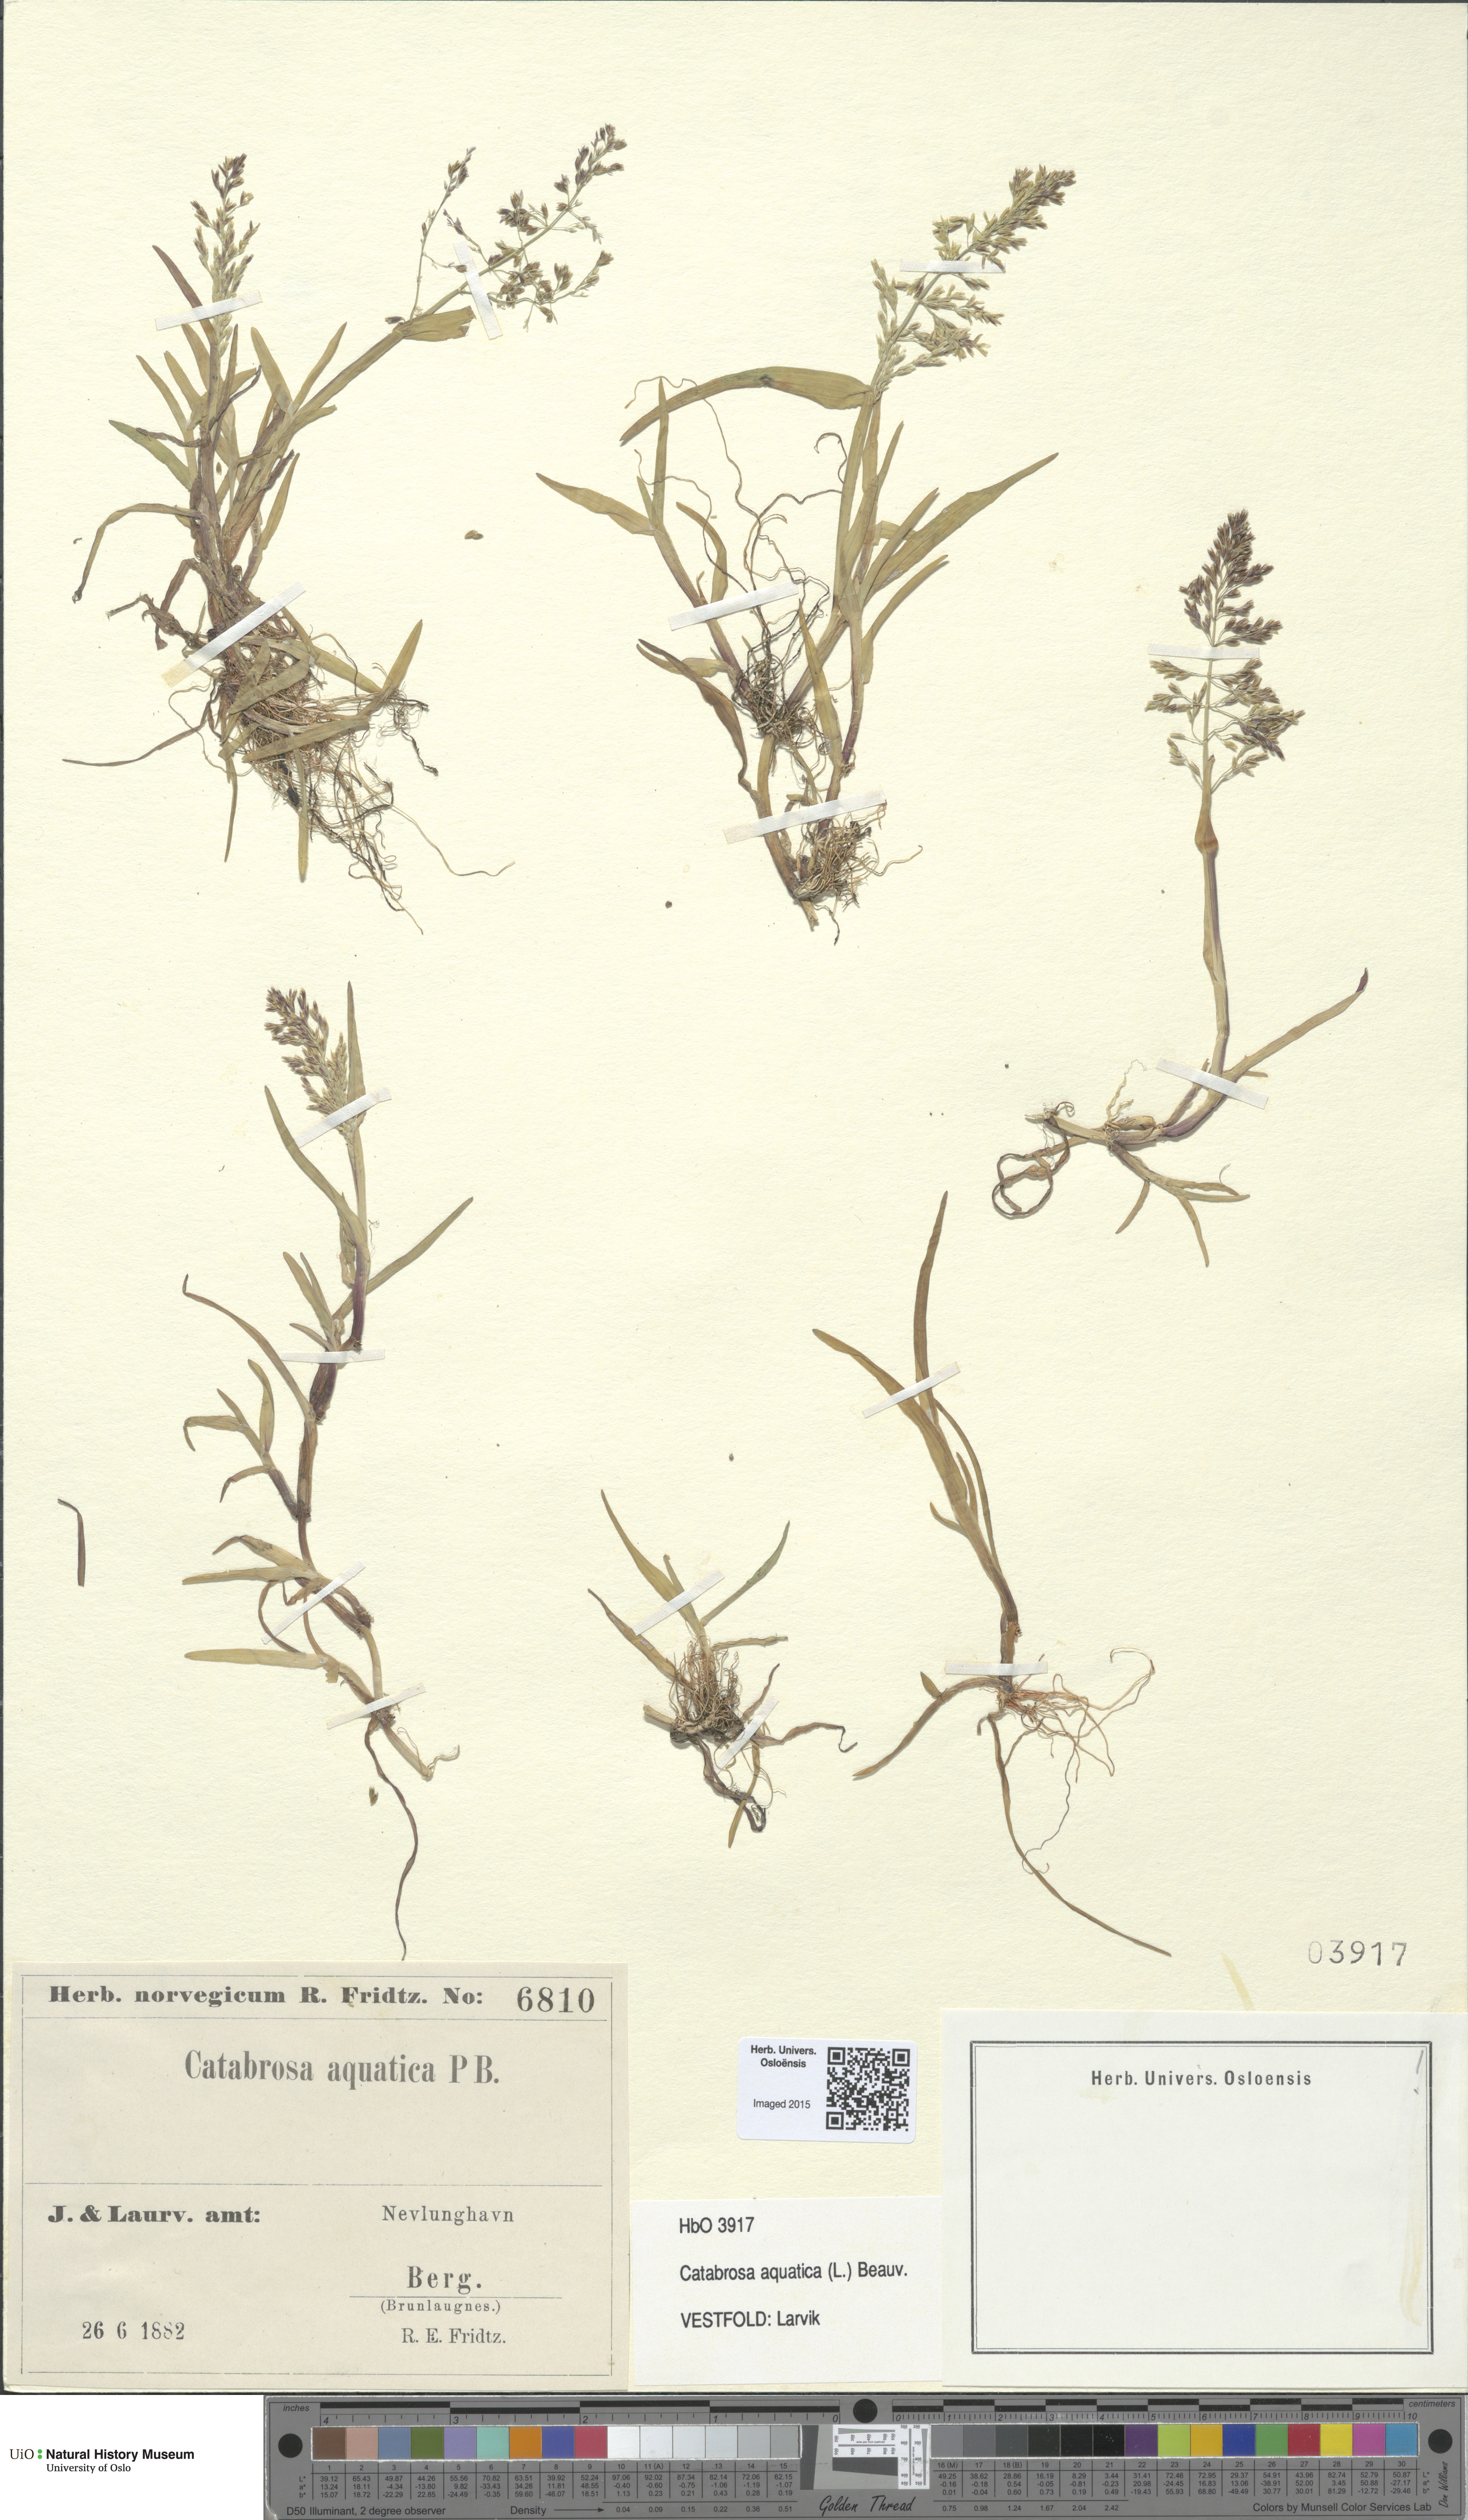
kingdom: Plantae
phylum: Tracheophyta
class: Liliopsida
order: Poales
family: Poaceae
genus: Catabrosa
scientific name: Catabrosa aquatica
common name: Whorl-grass
